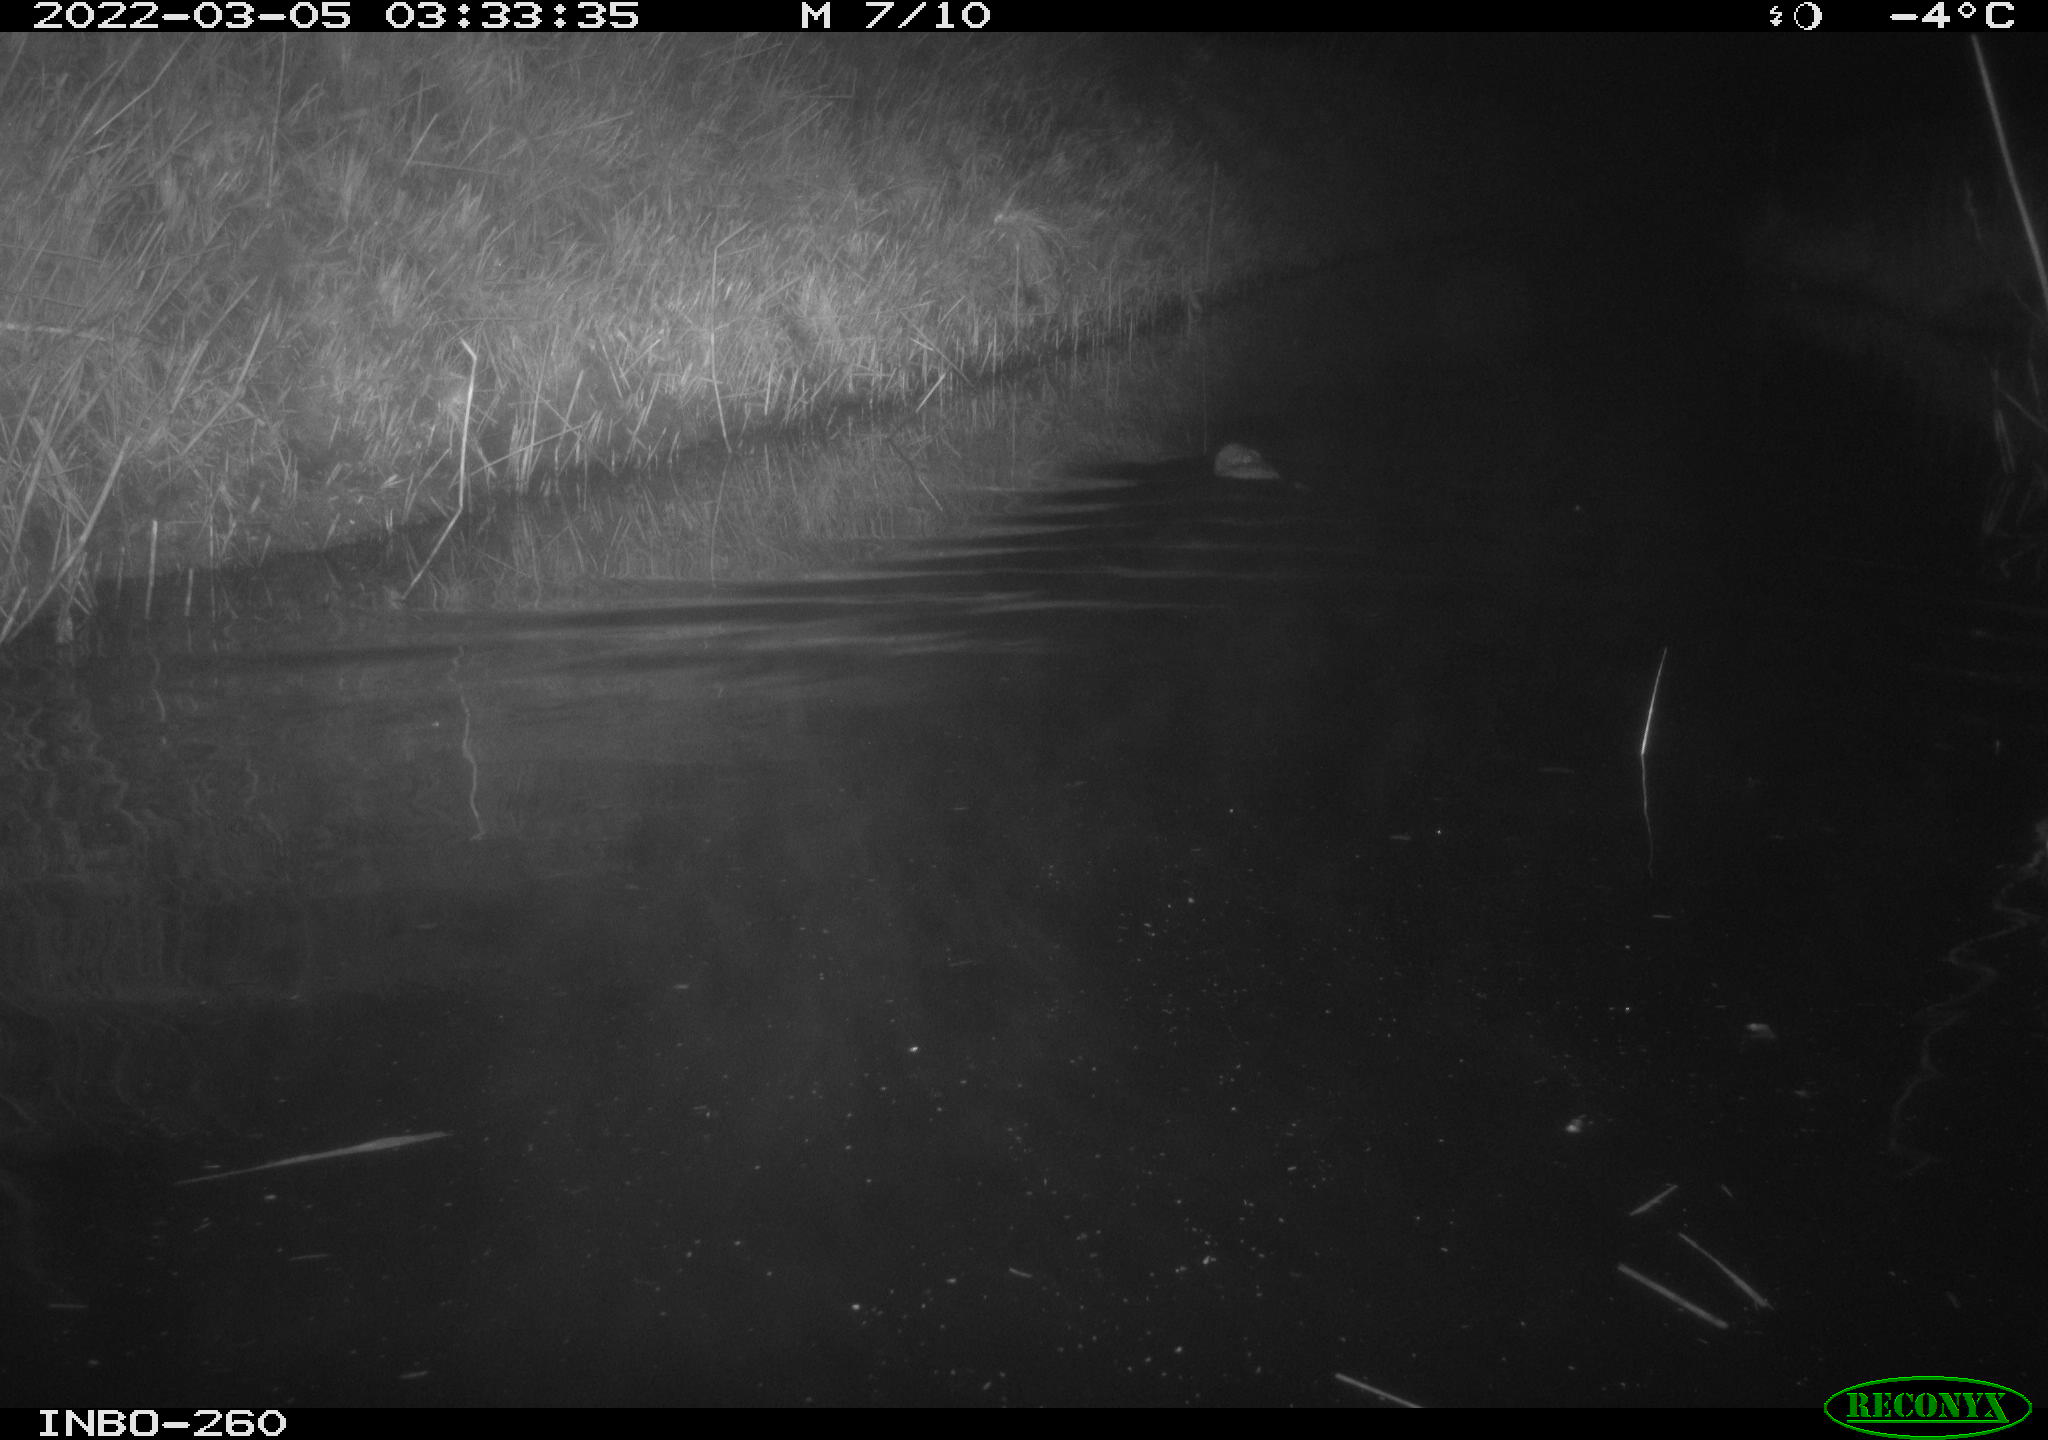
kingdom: Animalia
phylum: Chordata
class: Mammalia
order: Rodentia
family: Cricetidae
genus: Ondatra
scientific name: Ondatra zibethicus
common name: Muskrat
